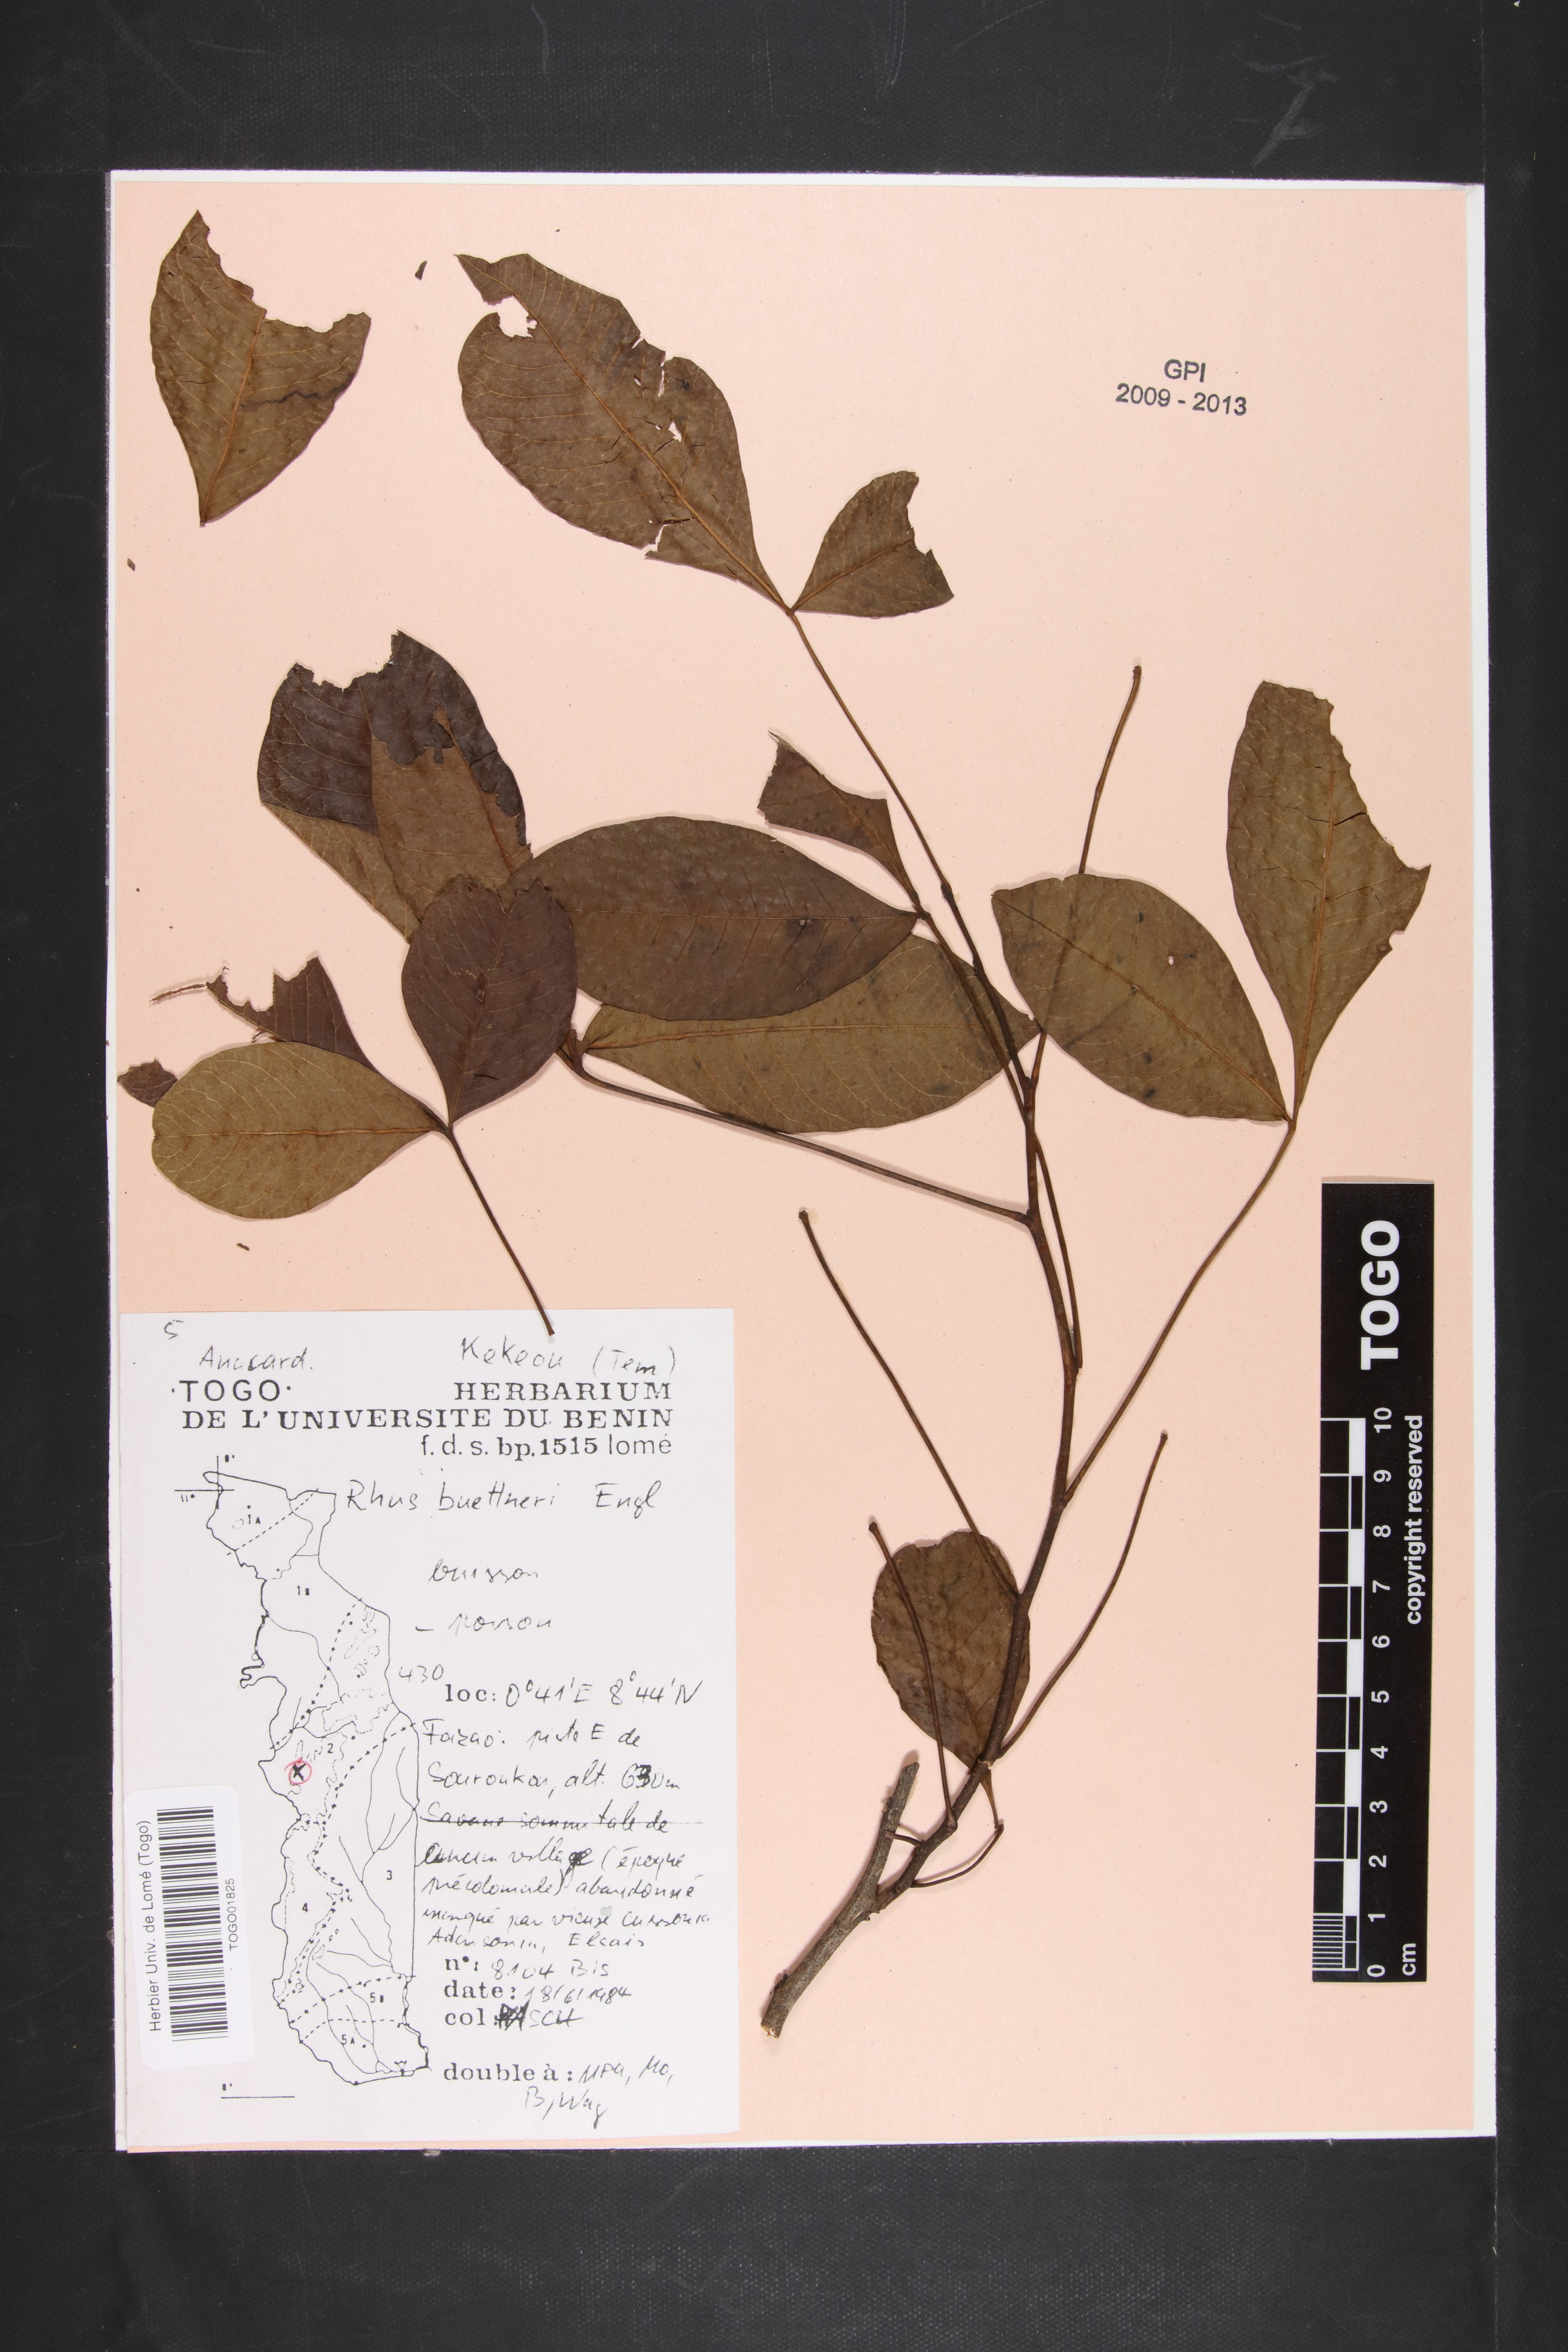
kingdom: Plantae
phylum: Tracheophyta
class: Magnoliopsida
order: Sapindales
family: Anacardiaceae
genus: Searsia
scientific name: Searsia crenulata
